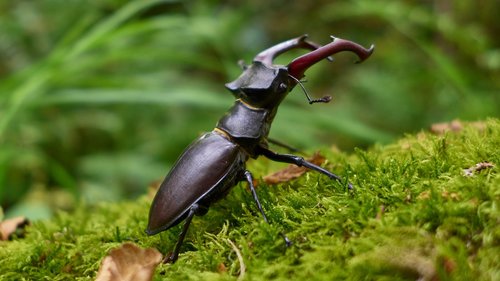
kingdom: Animalia
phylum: Arthropoda
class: Insecta
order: Coleoptera
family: Lucanidae
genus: Lucanus
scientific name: Lucanus cervus
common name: Stag beetle
